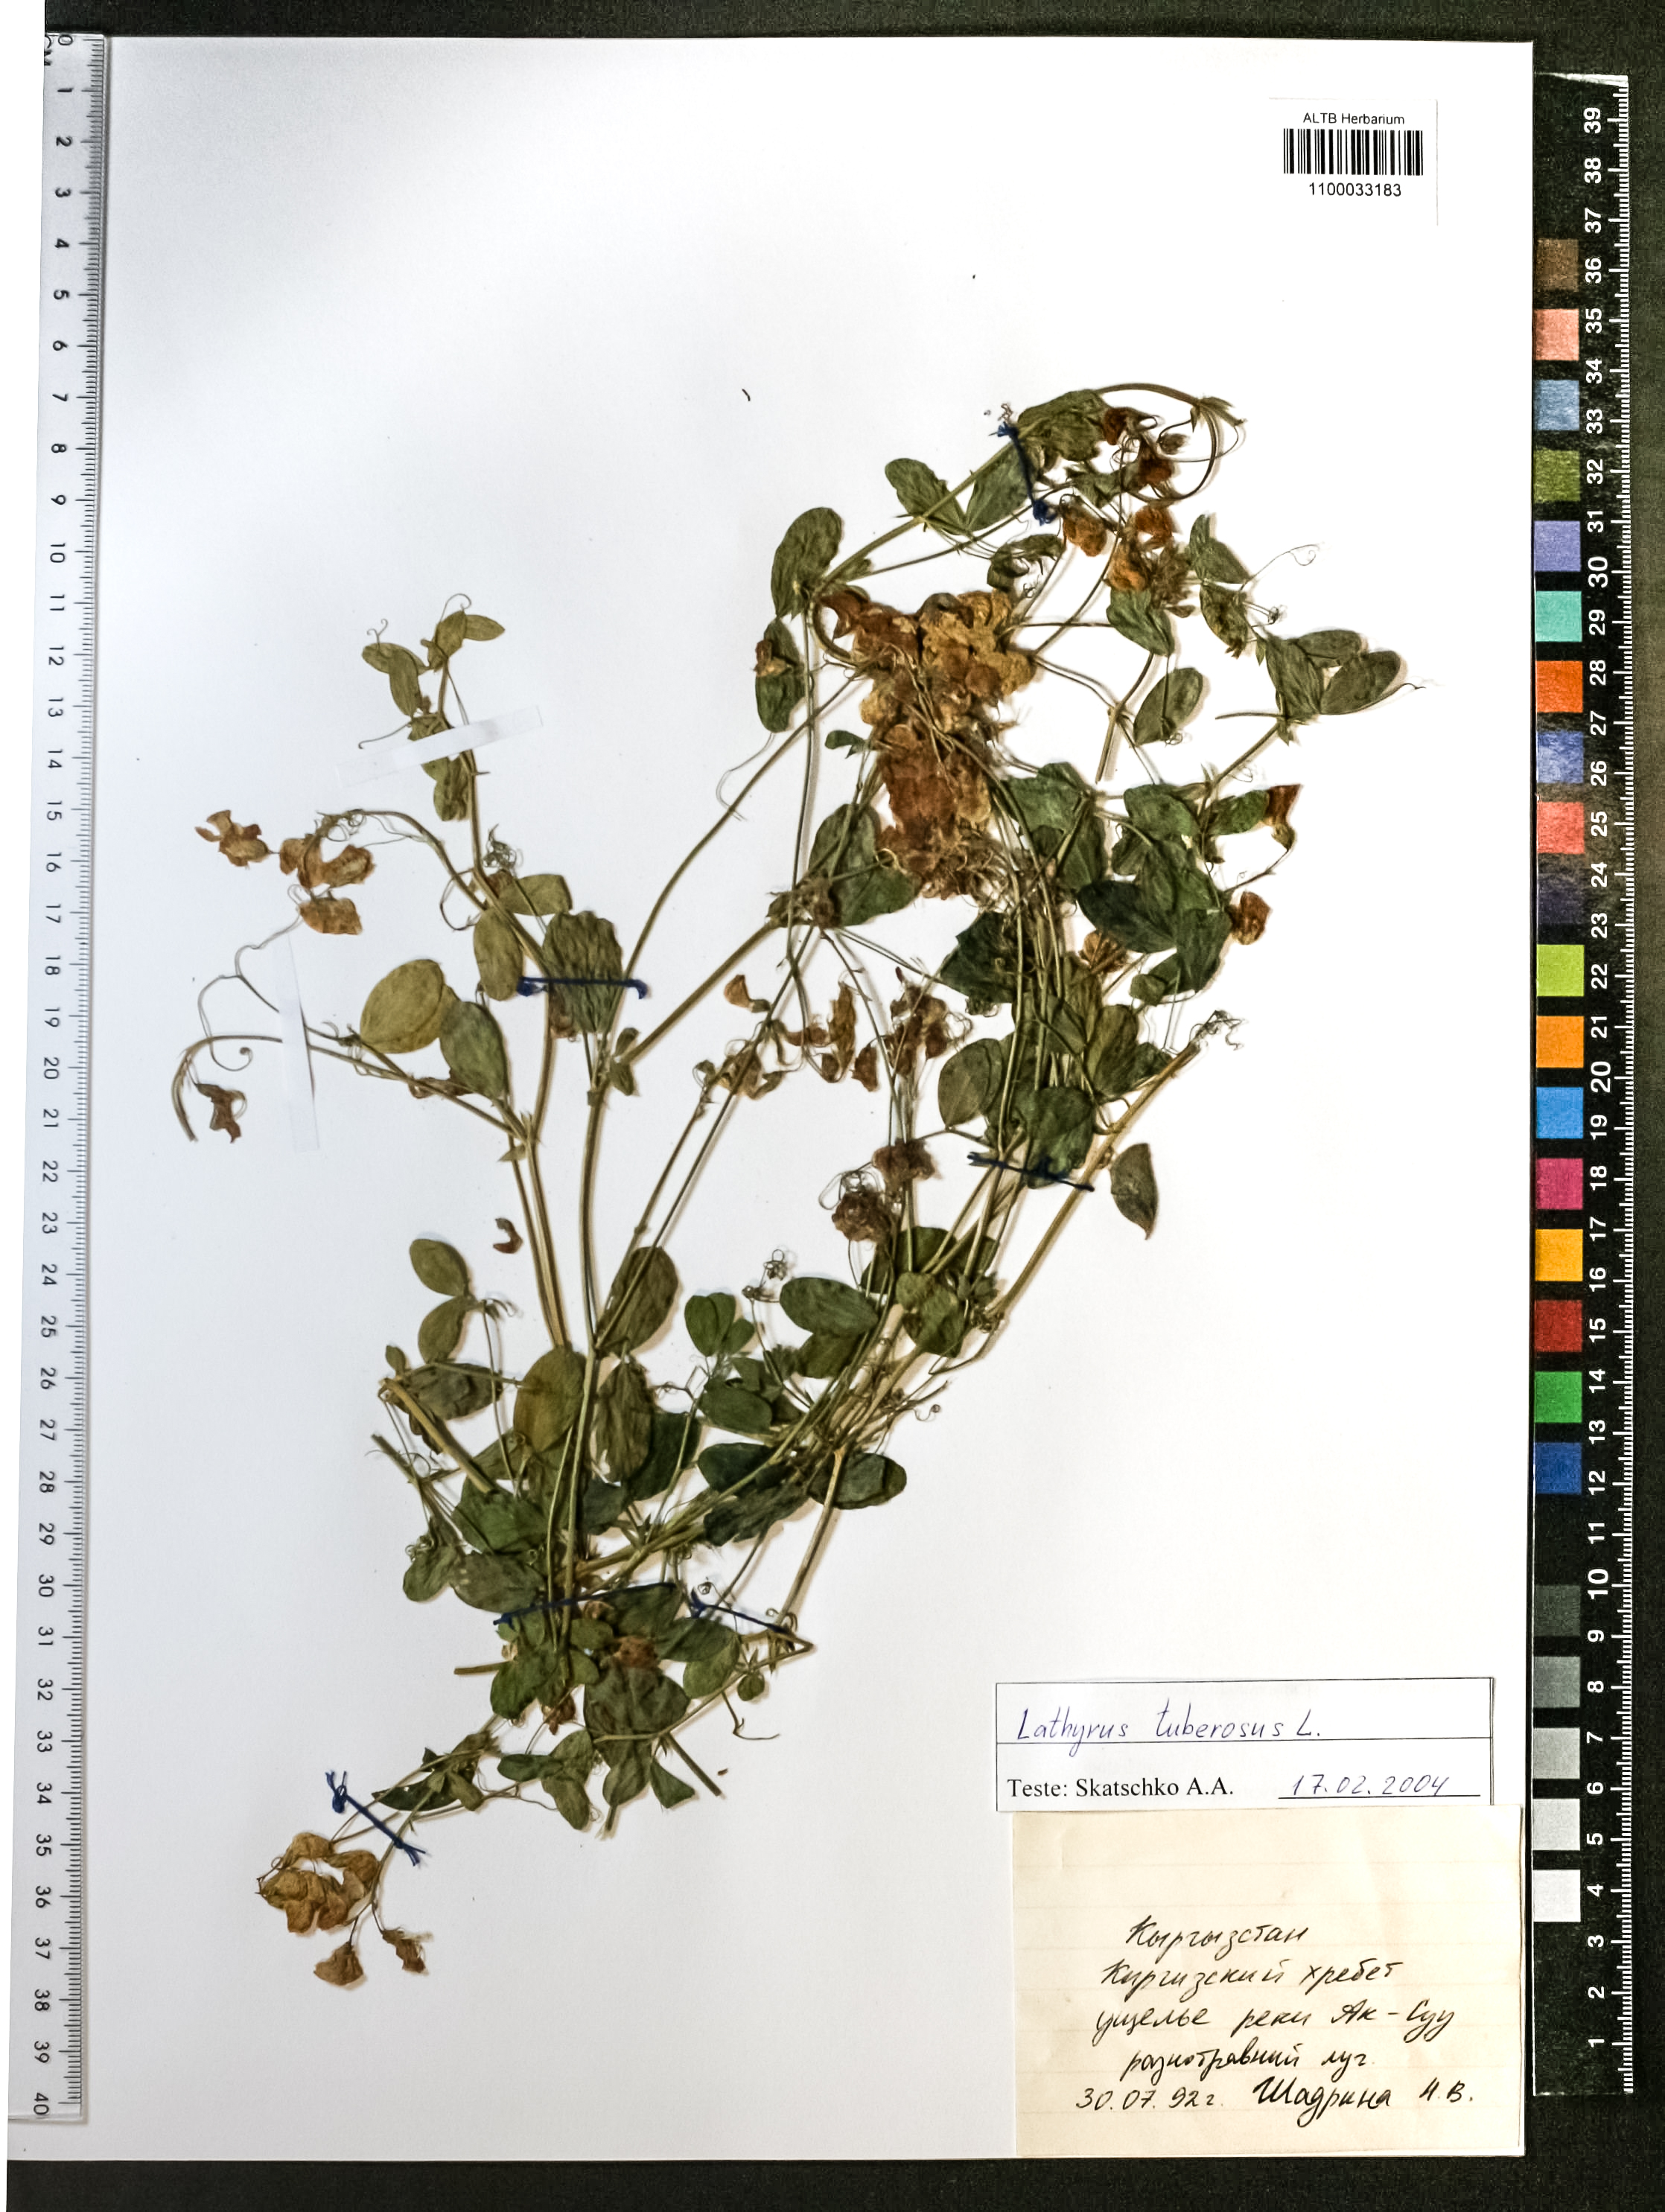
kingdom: Plantae
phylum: Tracheophyta
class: Magnoliopsida
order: Fabales
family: Fabaceae
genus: Lathyrus
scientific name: Lathyrus tuberosus
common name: Tuberous pea
